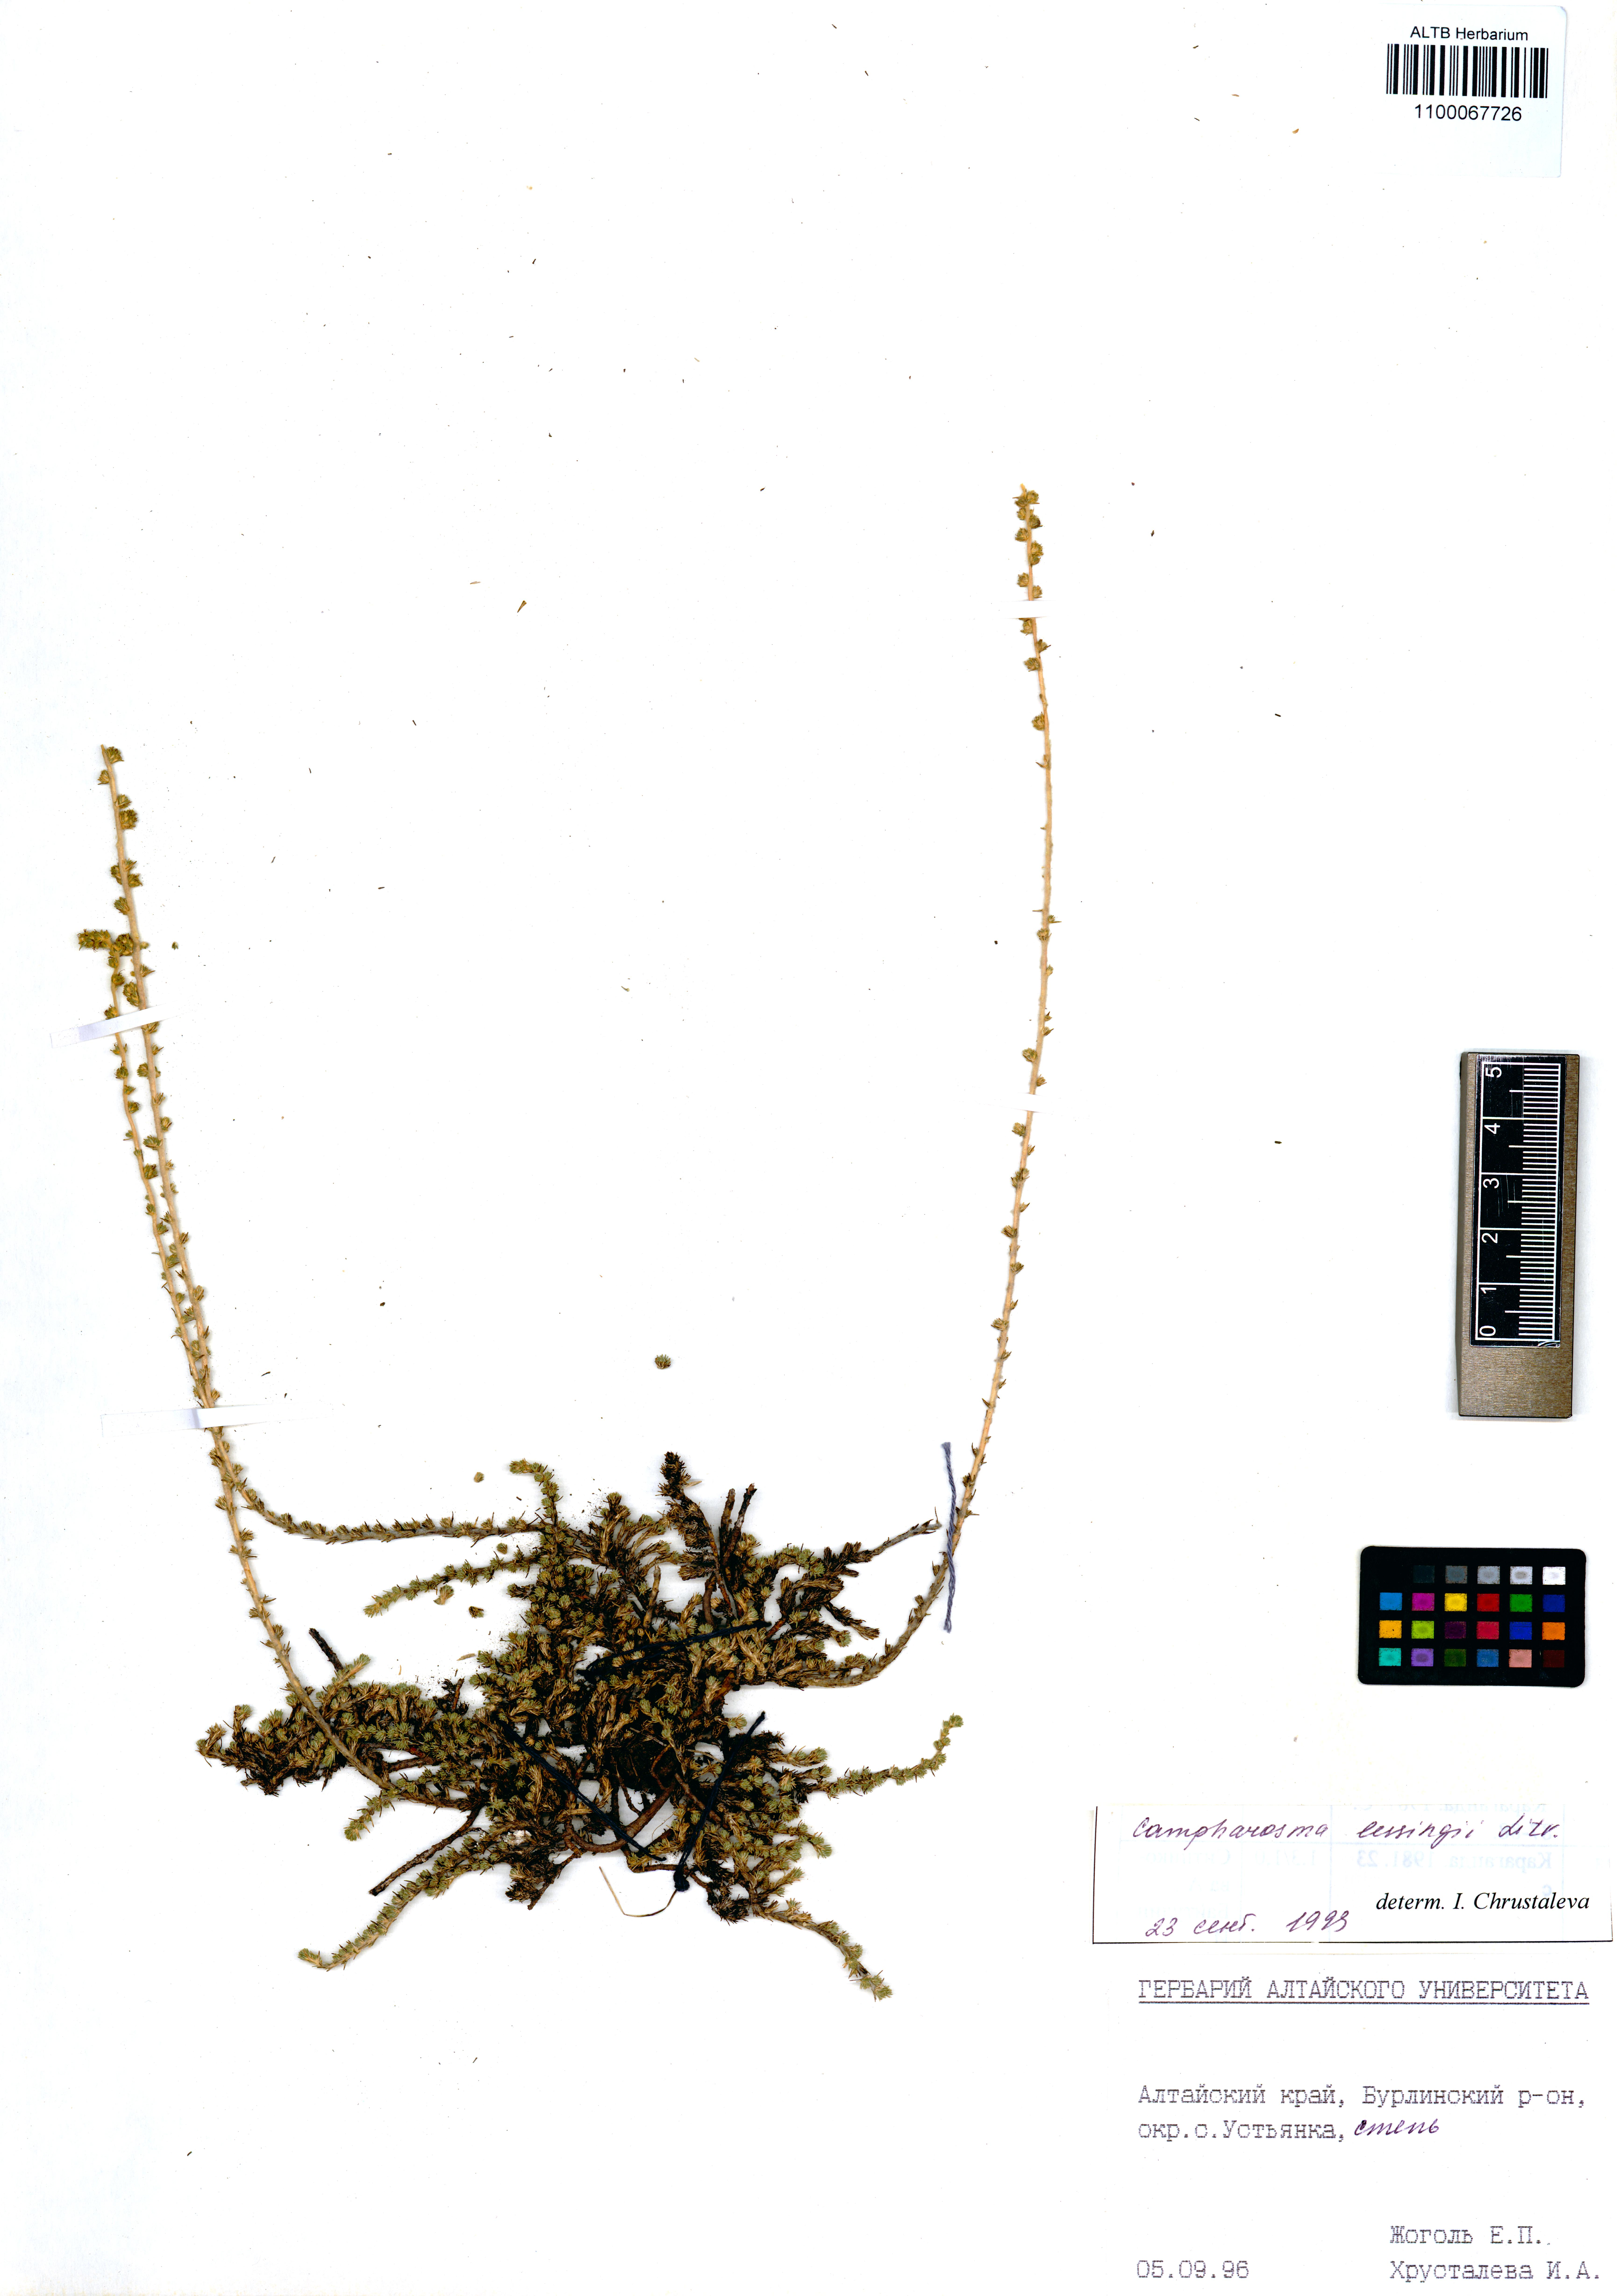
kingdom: Plantae
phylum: Tracheophyta
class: Magnoliopsida
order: Caryophyllales
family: Amaranthaceae
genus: Camphorosma
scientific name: Camphorosma monspeliaca
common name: Camphorfume
